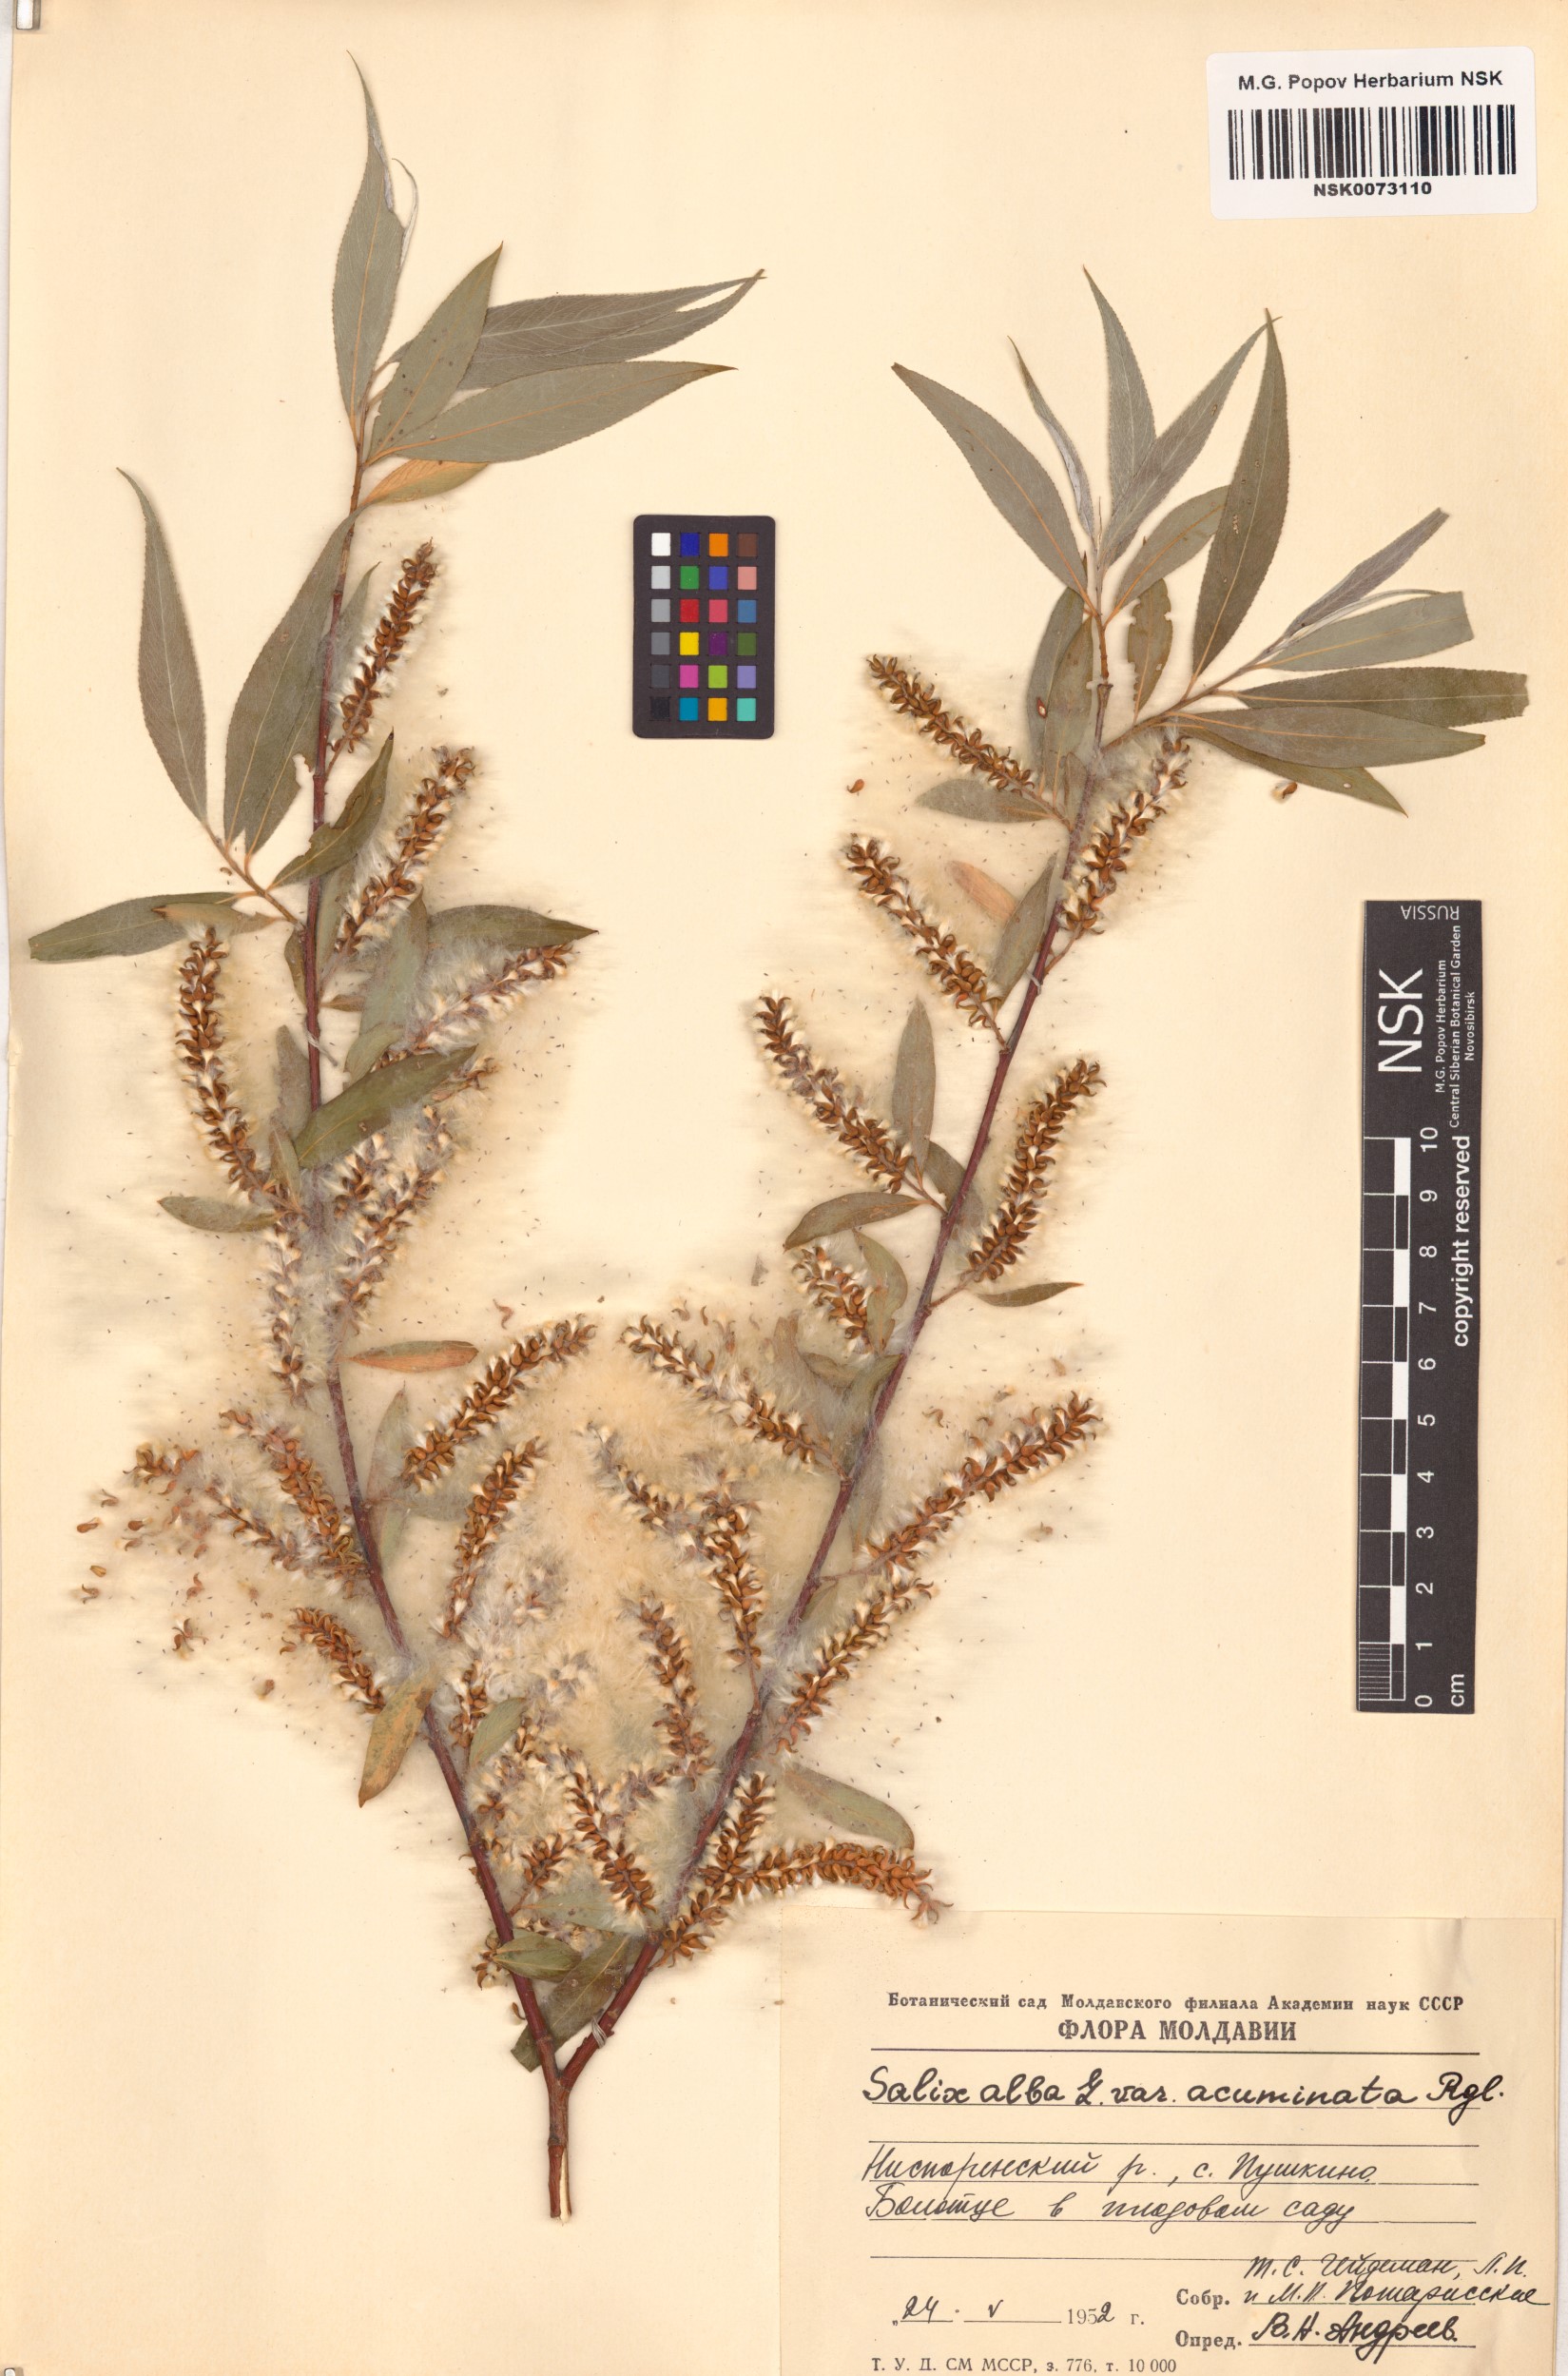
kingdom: Plantae
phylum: Tracheophyta
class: Magnoliopsida
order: Malpighiales
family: Salicaceae
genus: Salix
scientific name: Salix alba
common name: White willow
